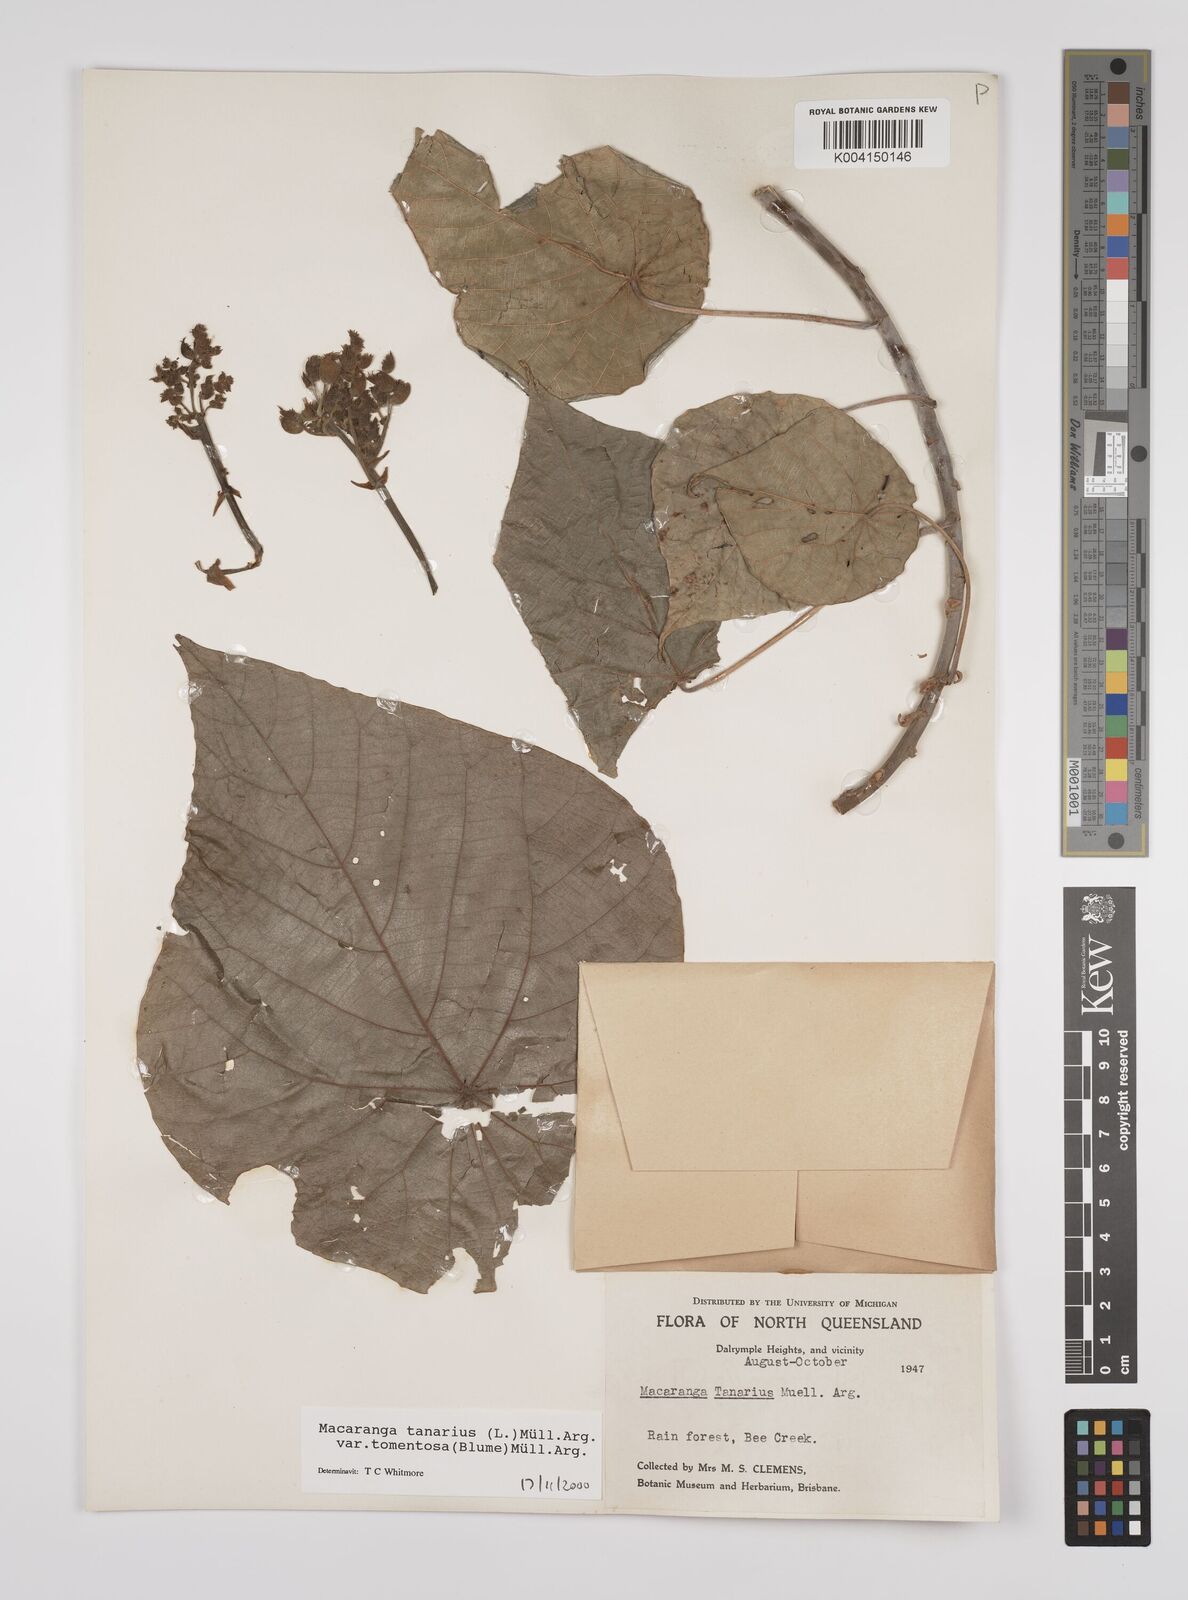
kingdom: Plantae
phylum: Tracheophyta
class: Magnoliopsida
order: Malpighiales
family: Euphorbiaceae
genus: Macaranga
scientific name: Macaranga tanarius
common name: Parasol leaf tree
